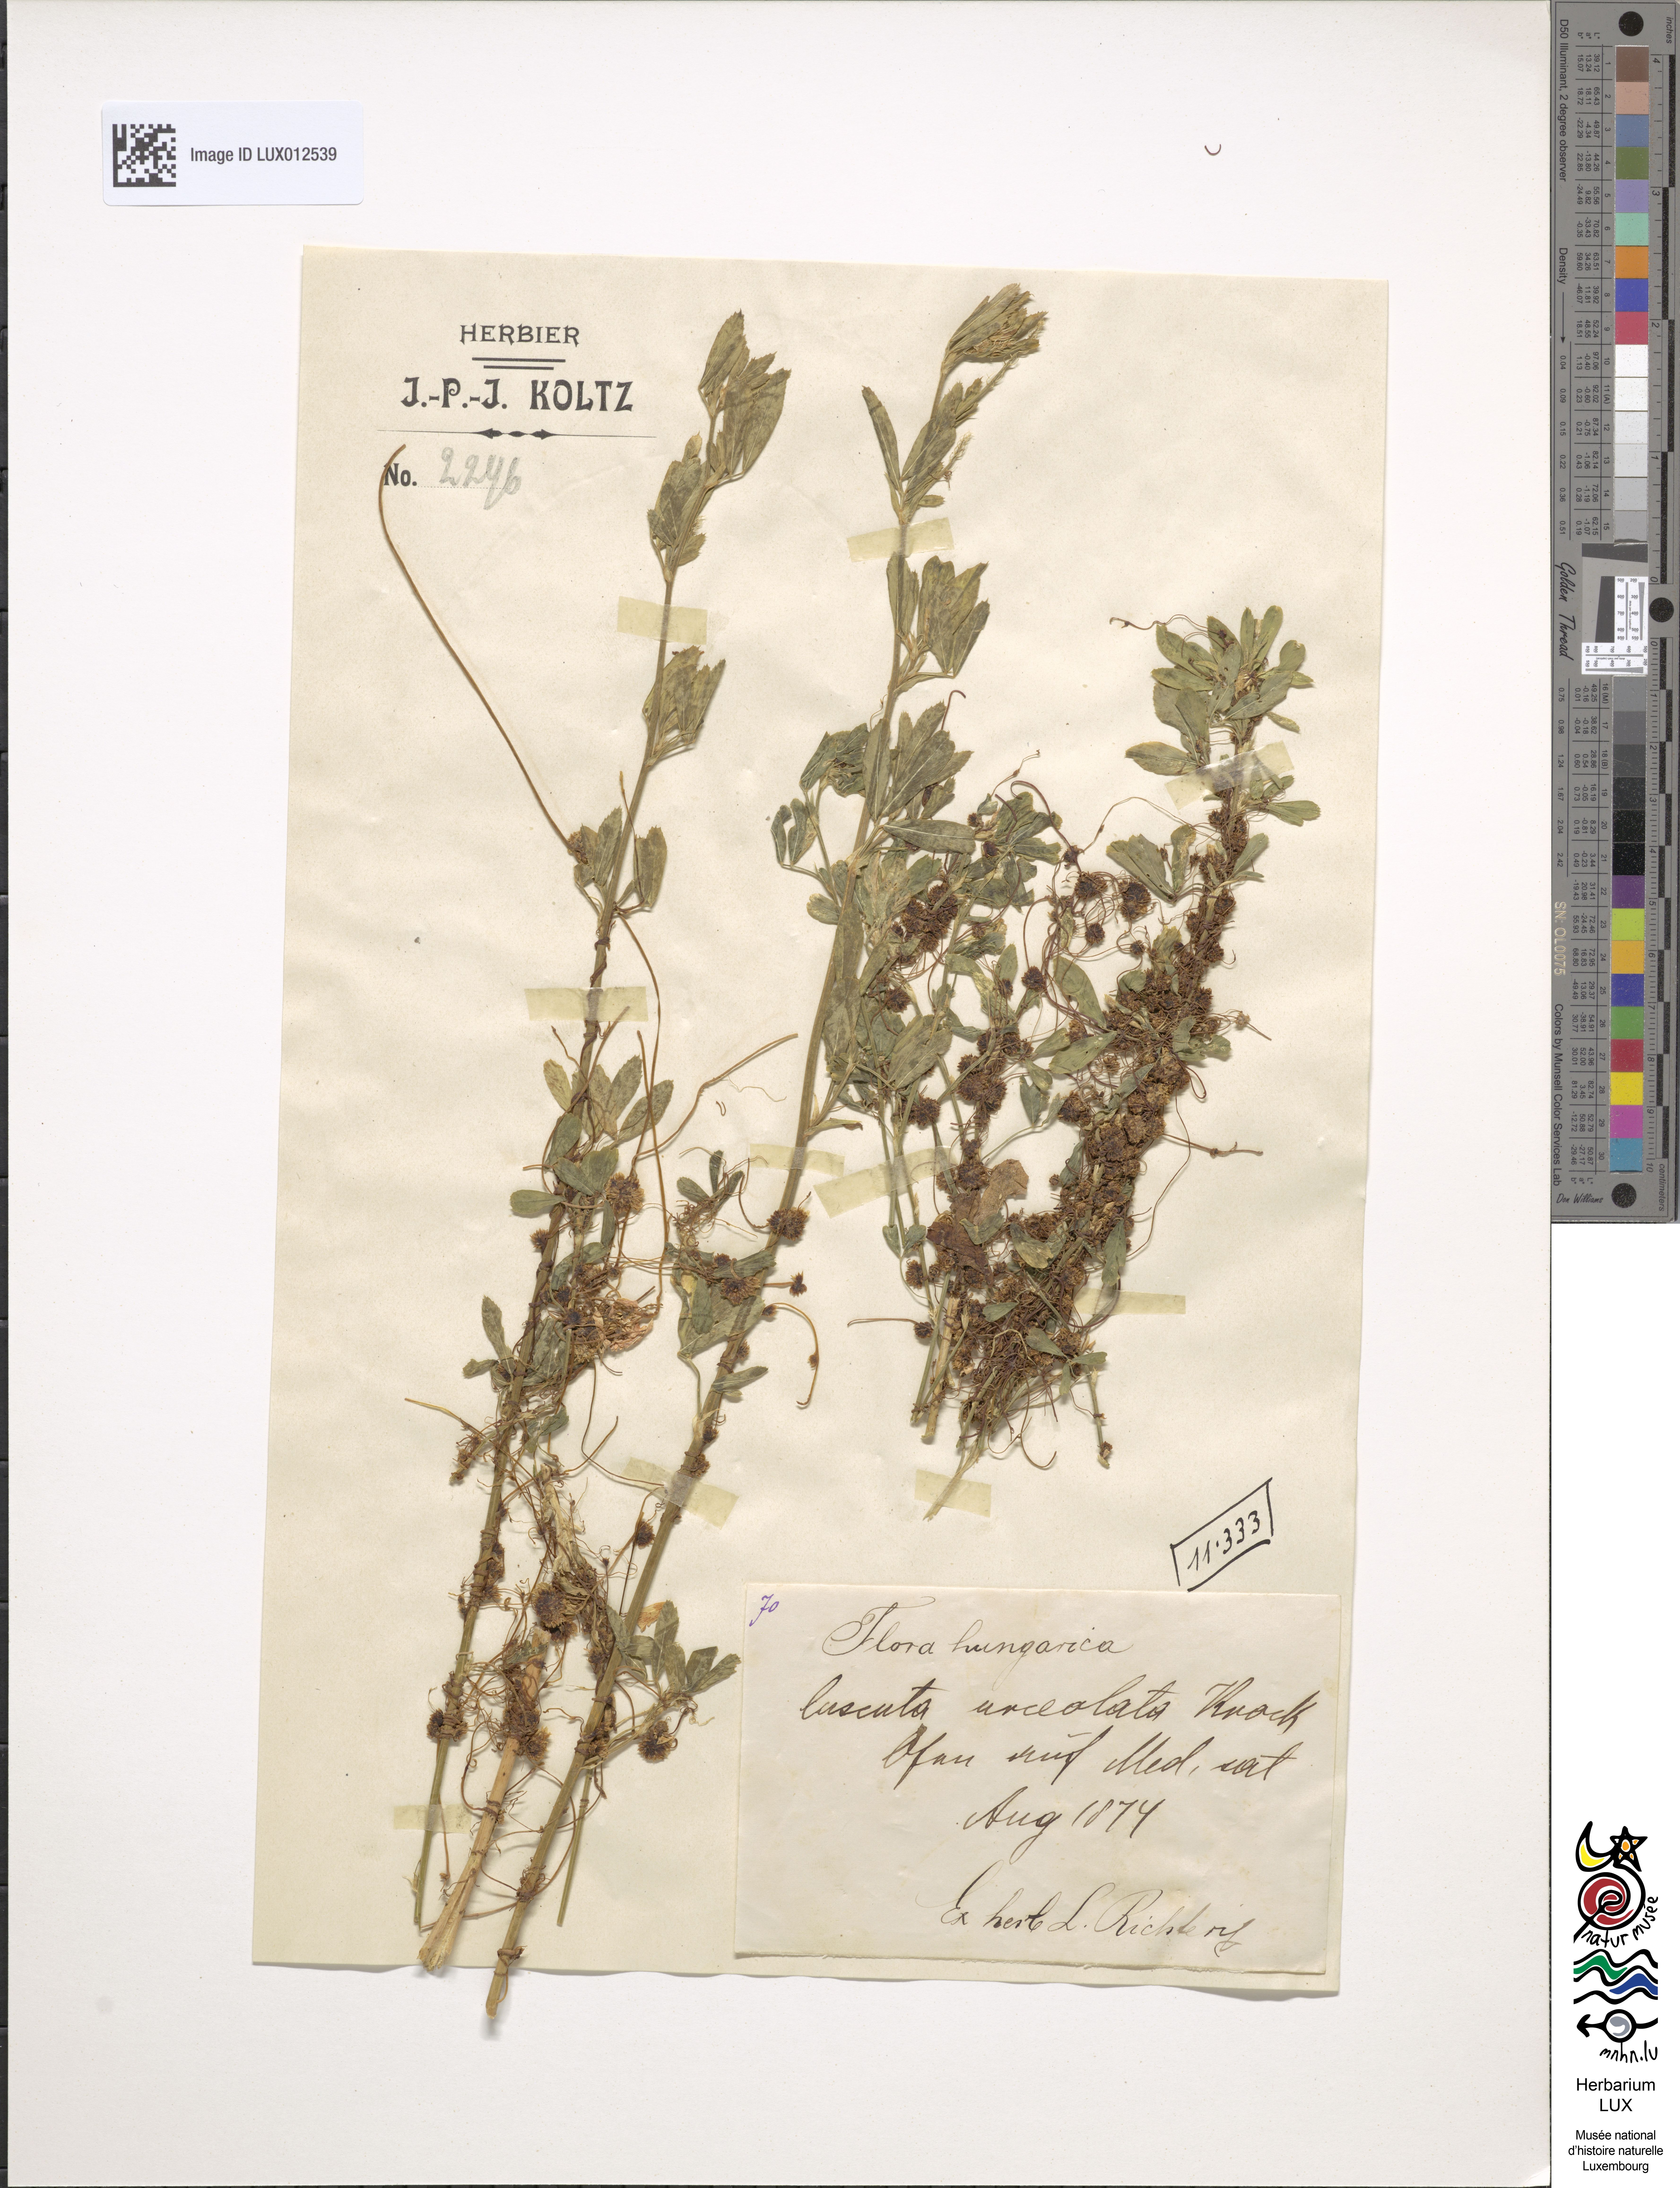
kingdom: Plantae
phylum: Tracheophyta
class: Magnoliopsida
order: Solanales
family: Convolvulaceae
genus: Cuscuta
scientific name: Cuscuta
